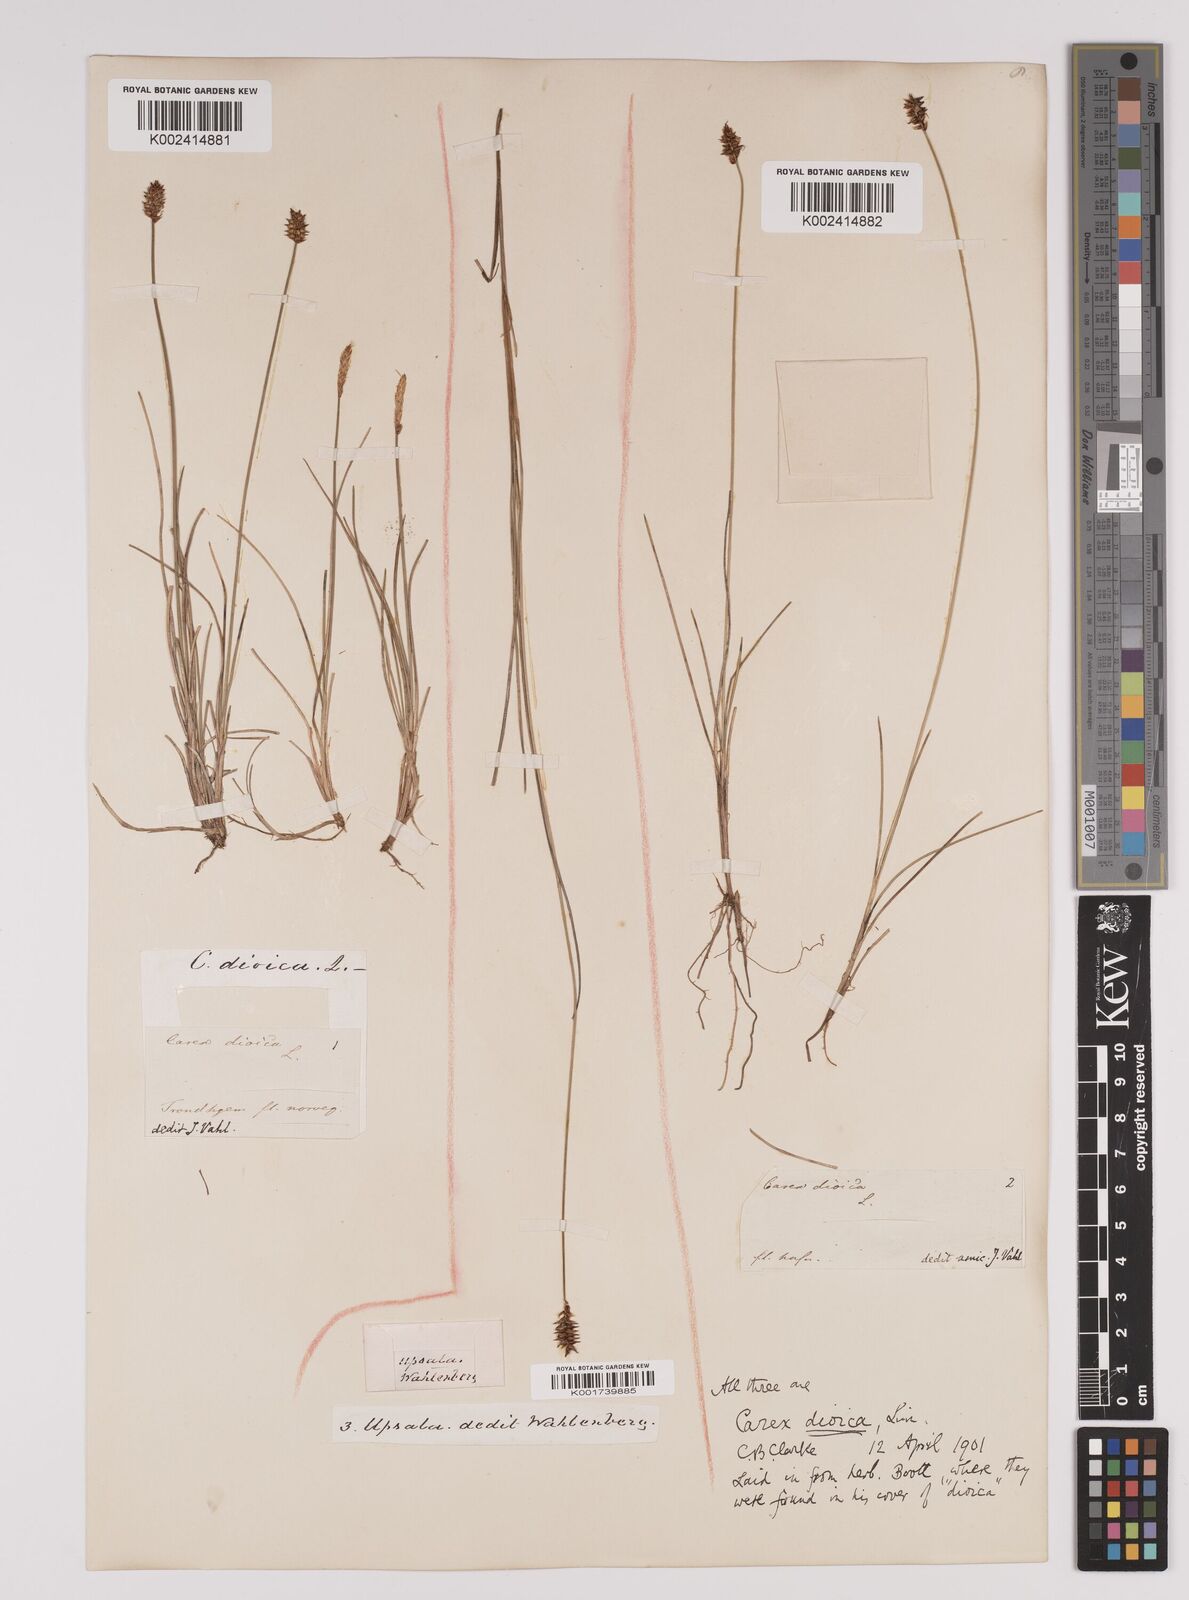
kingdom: Plantae
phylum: Tracheophyta
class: Liliopsida
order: Poales
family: Cyperaceae
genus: Carex
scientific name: Carex dioica
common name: Dioecious sedge
